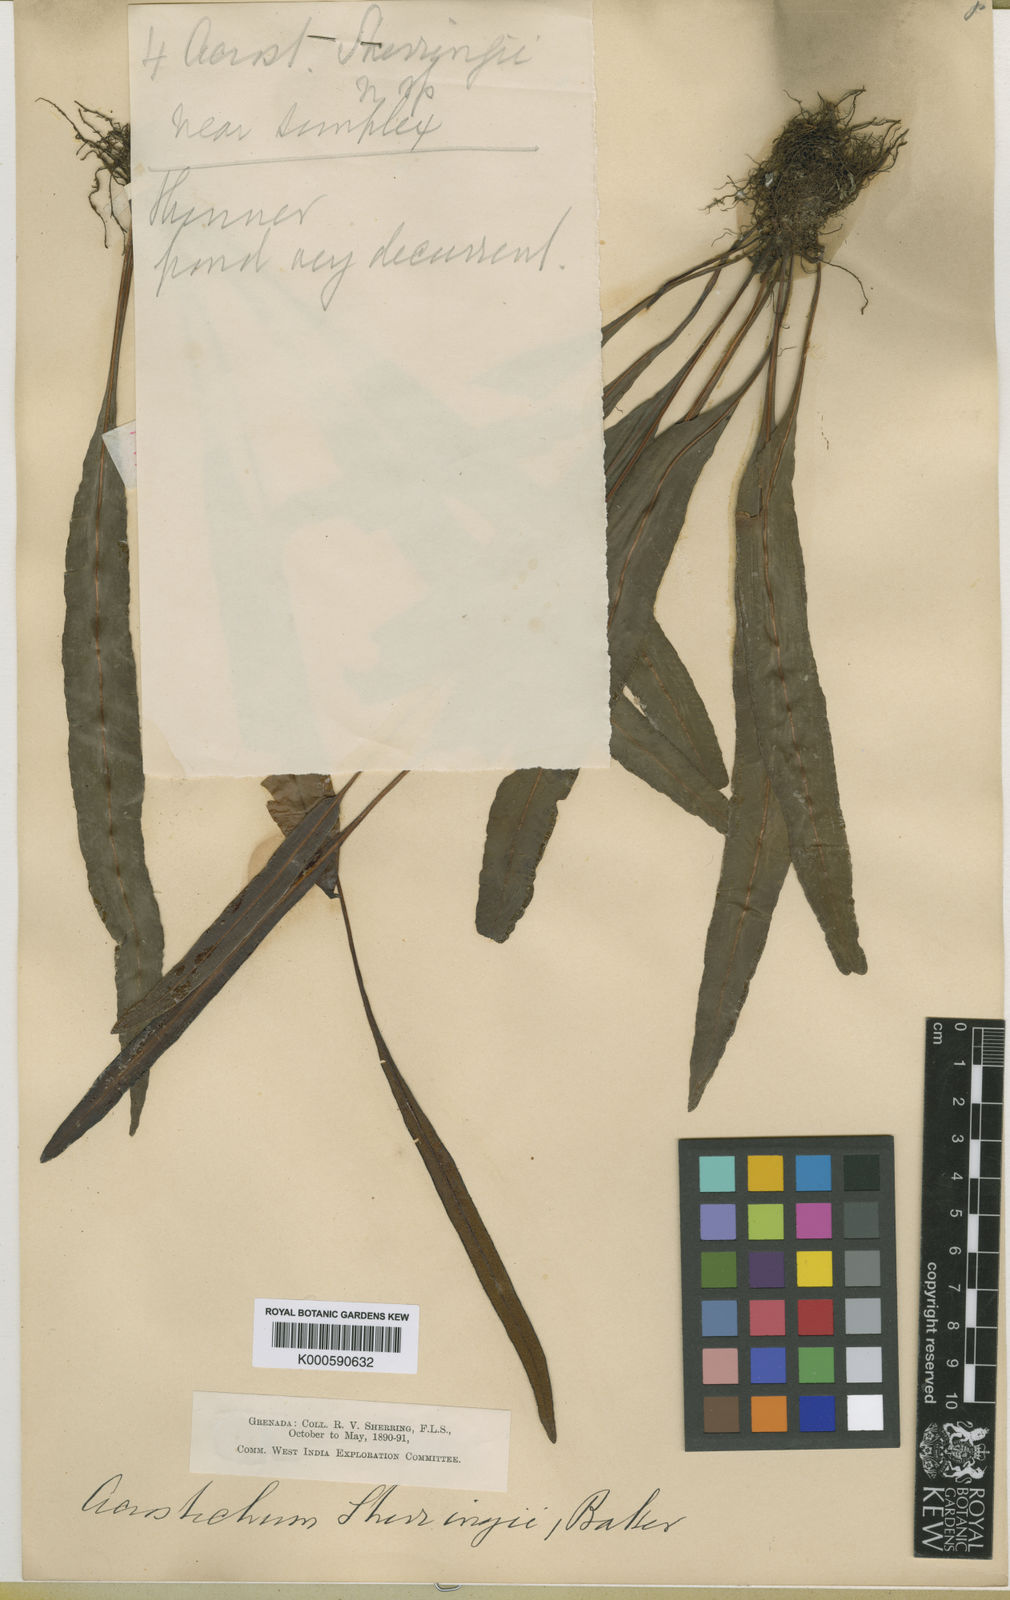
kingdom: Plantae
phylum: Tracheophyta
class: Polypodiopsida
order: Polypodiales
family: Dryopteridaceae
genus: Elaphoglossum
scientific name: Elaphoglossum nigrescens
